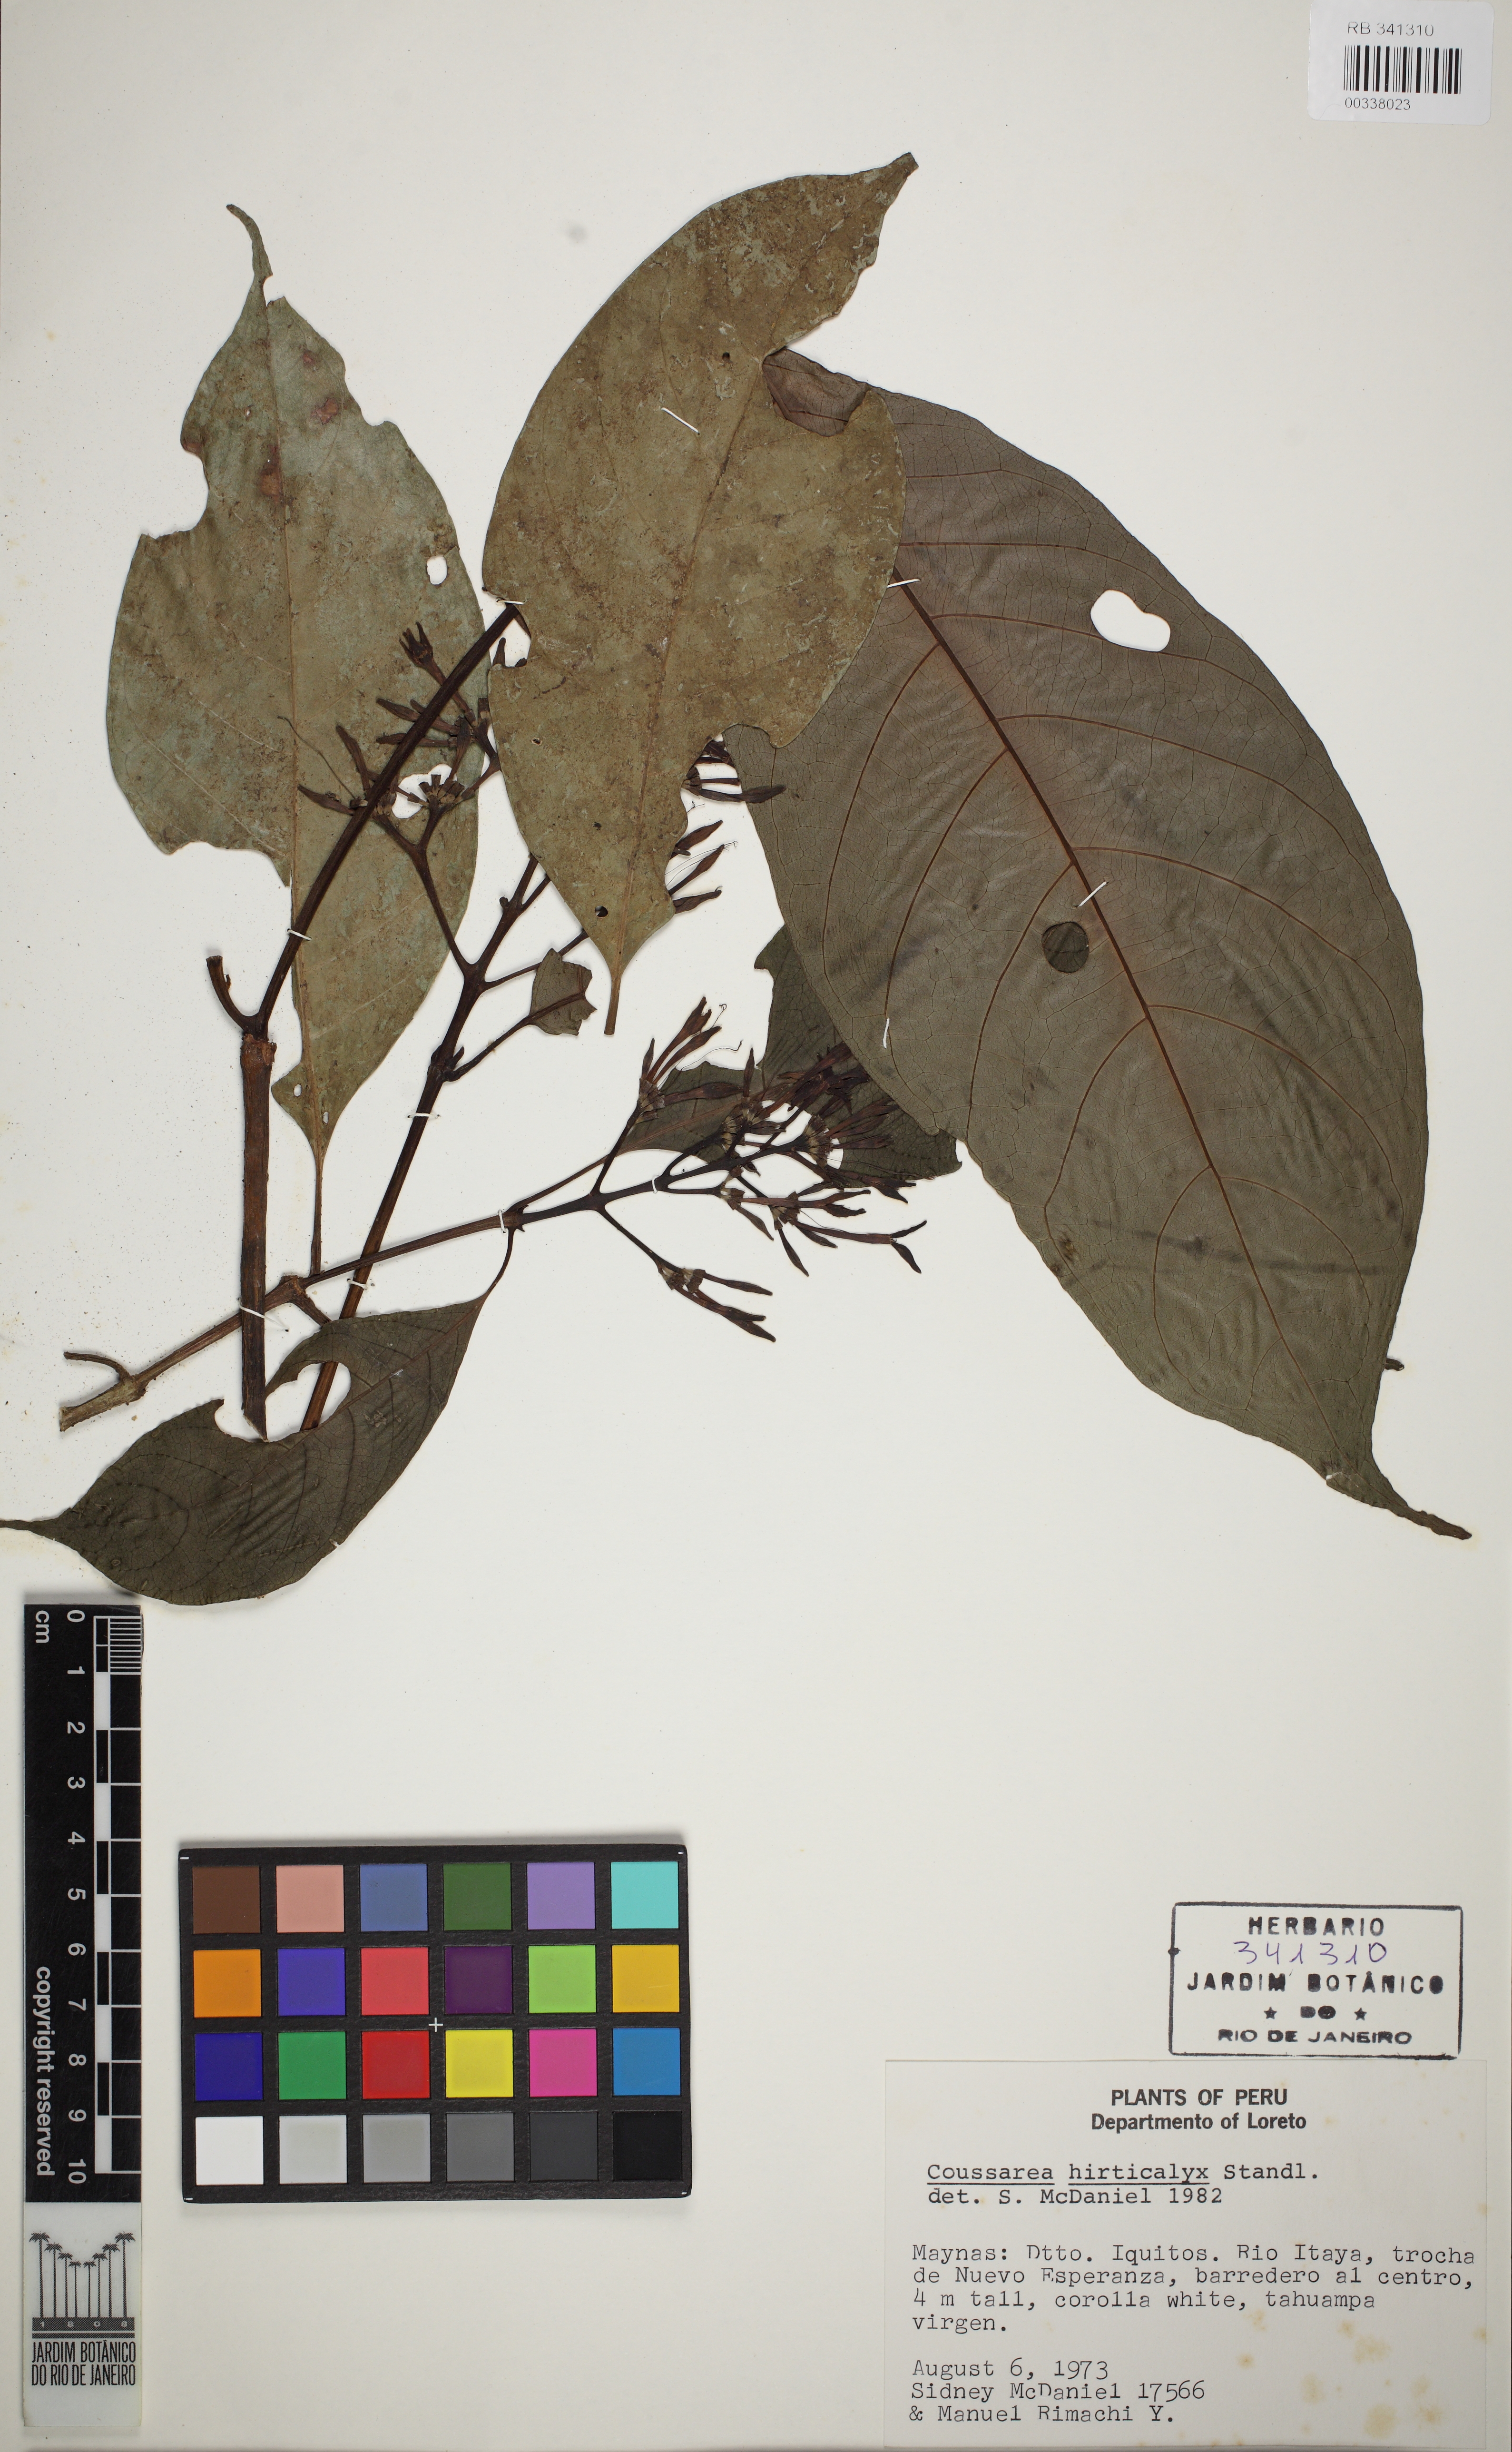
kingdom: Plantae
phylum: Tracheophyta
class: Magnoliopsida
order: Gentianales
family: Rubiaceae
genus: Coussarea
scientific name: Coussarea hirticalyx
